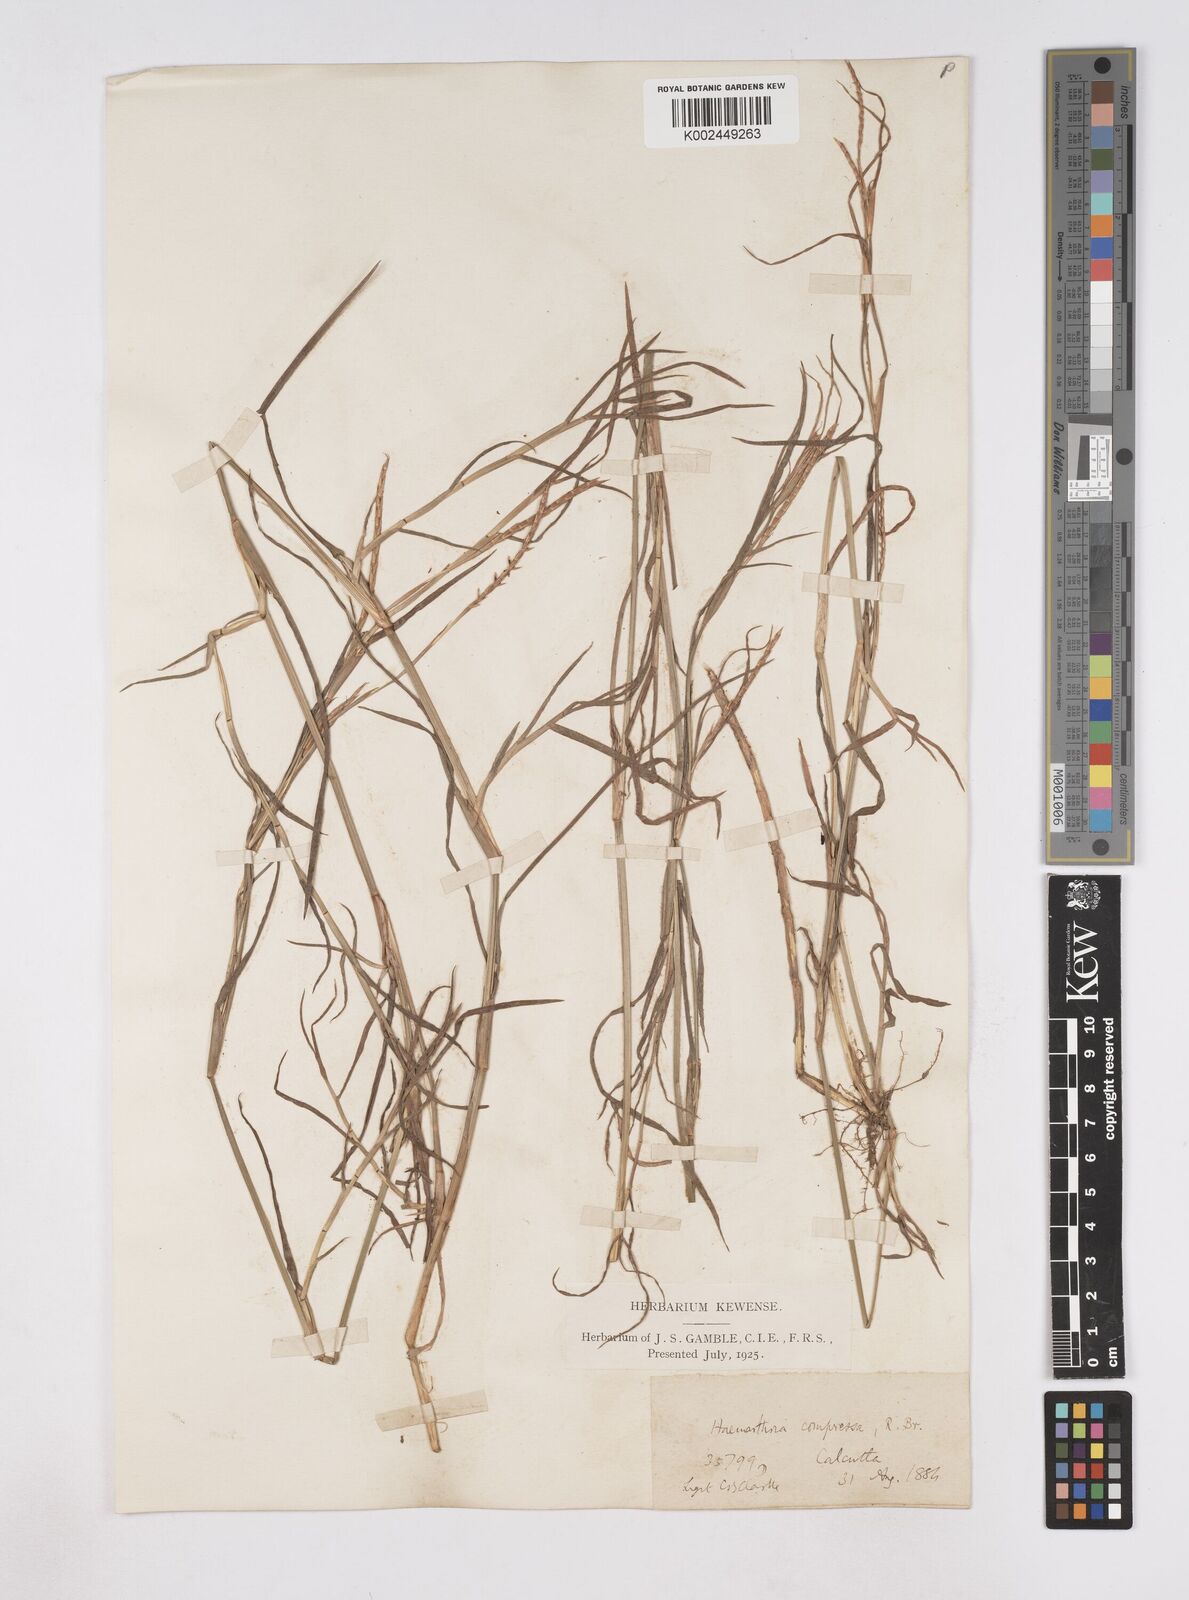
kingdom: Plantae
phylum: Tracheophyta
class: Liliopsida
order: Poales
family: Poaceae
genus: Hemarthria
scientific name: Hemarthria compressa
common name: Whip grass
